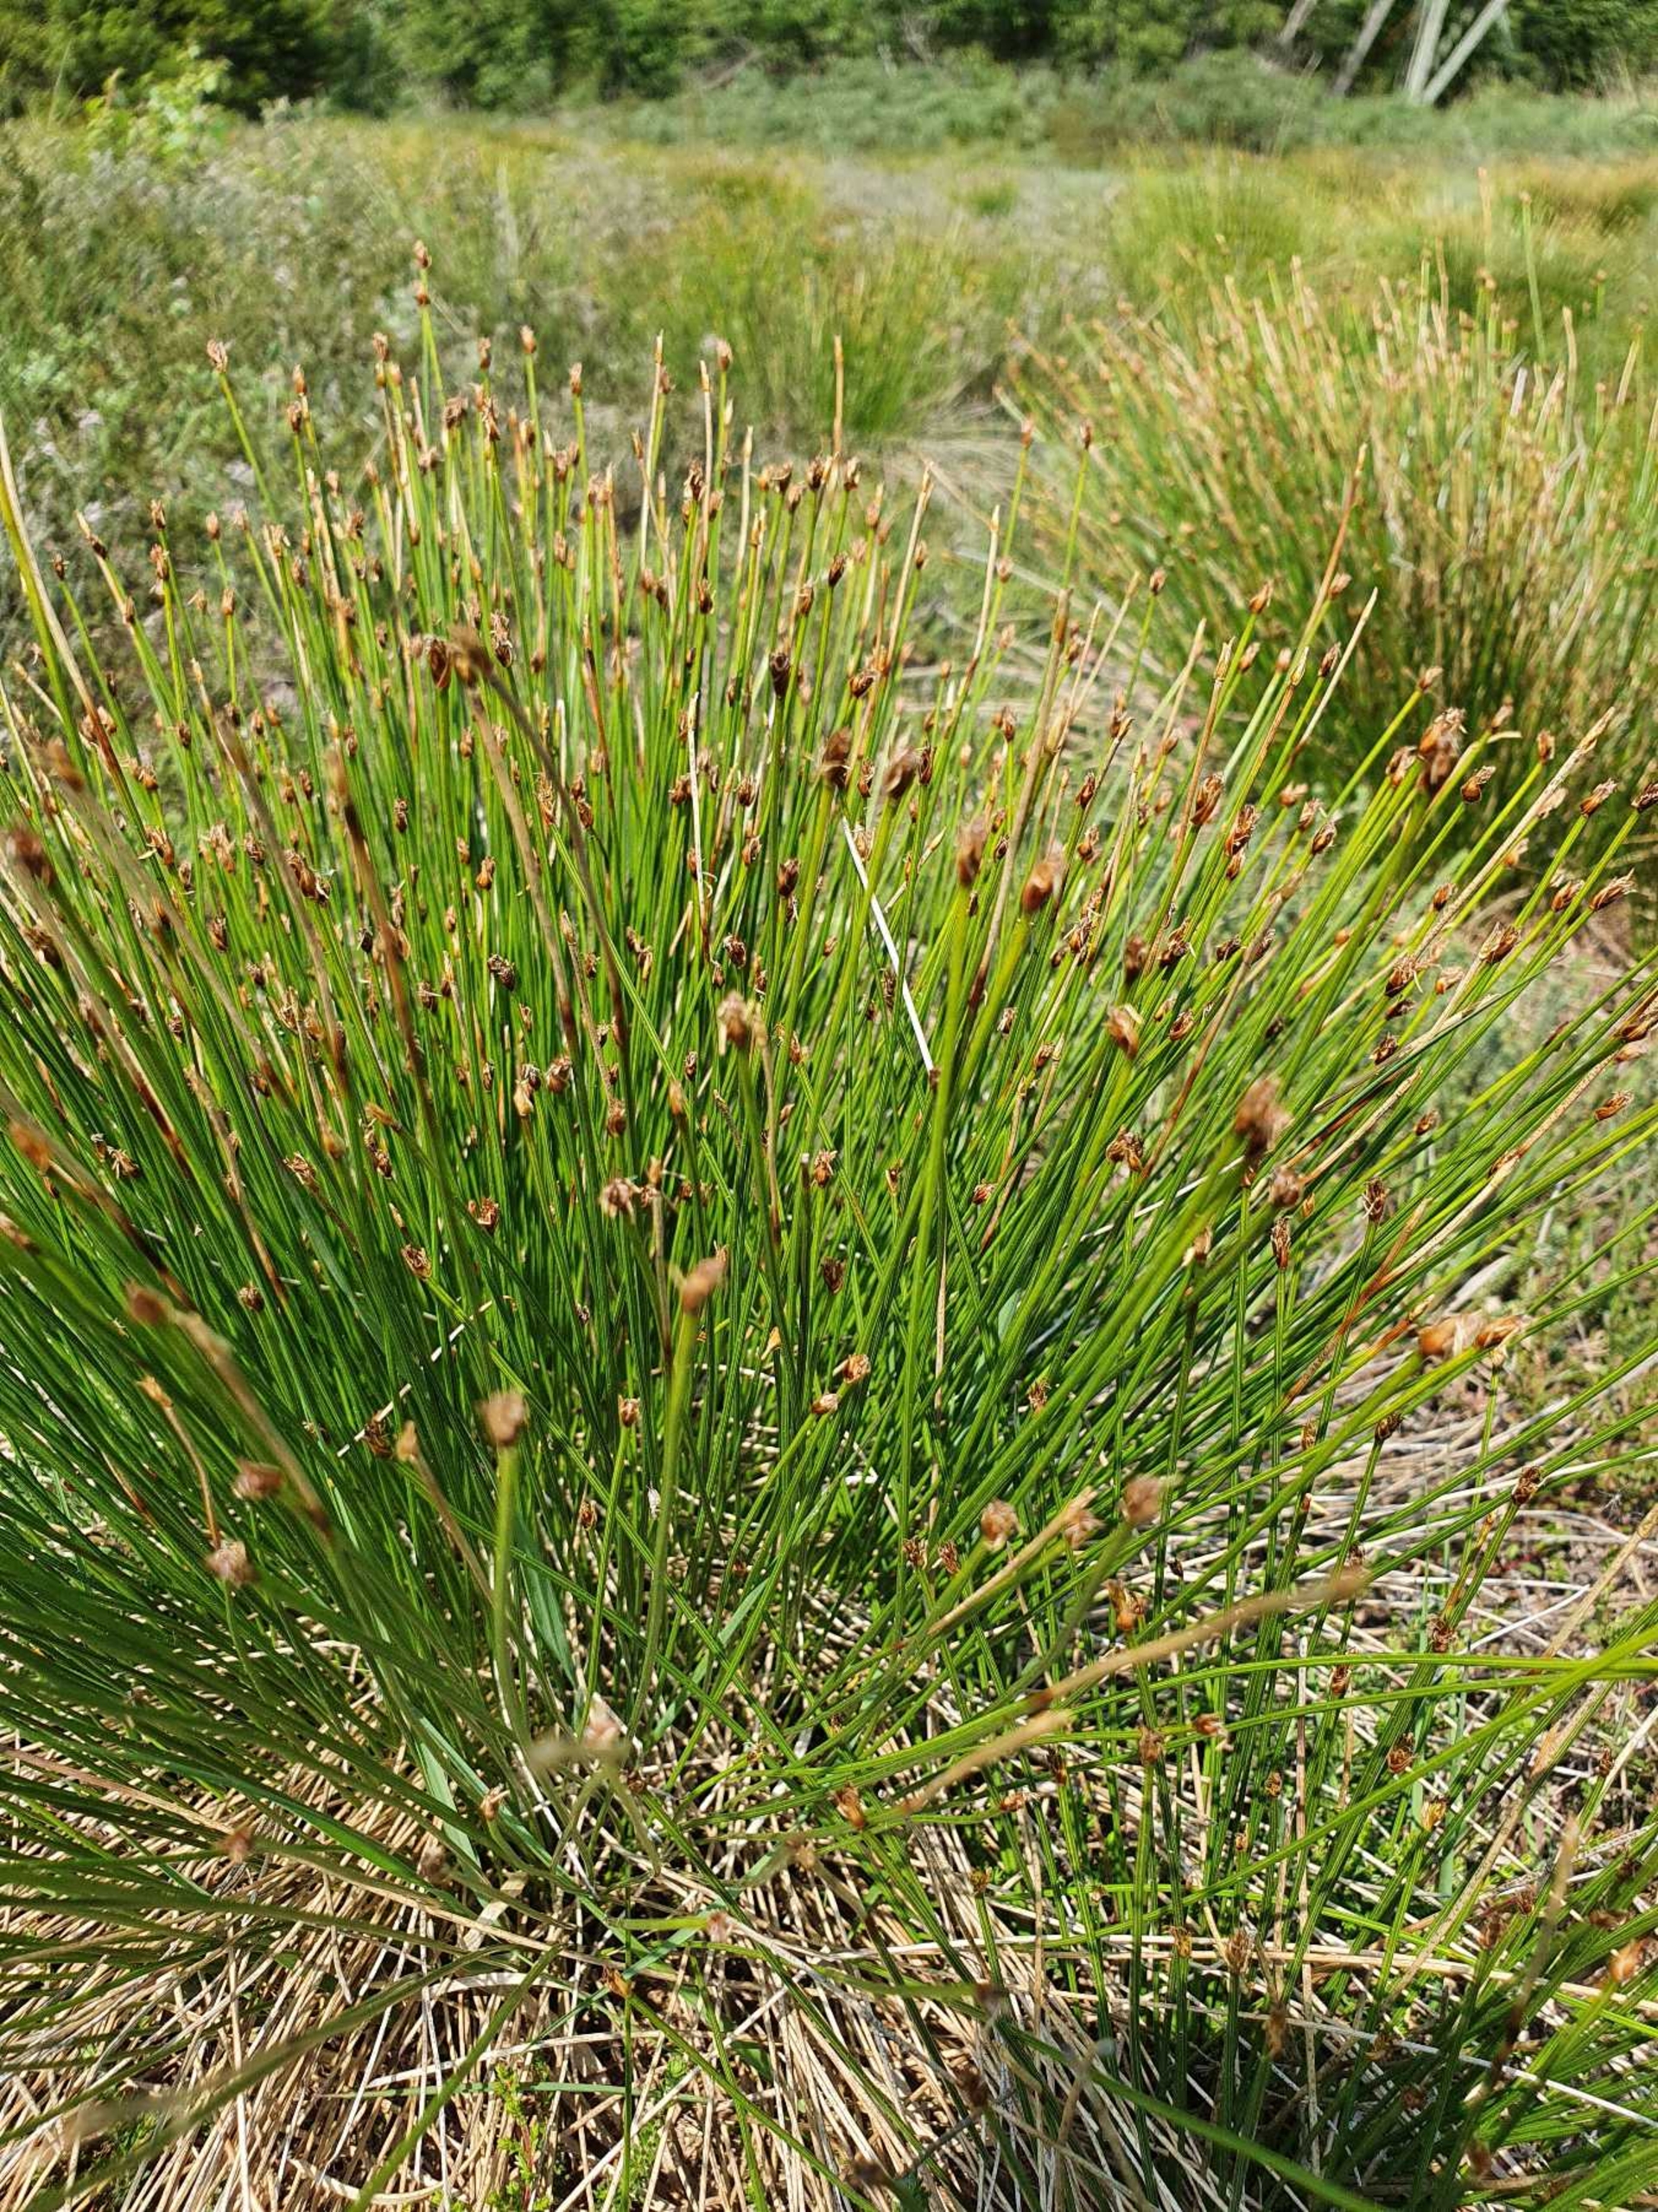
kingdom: Plantae
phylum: Tracheophyta
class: Liliopsida
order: Poales
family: Cyperaceae
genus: Trichophorum
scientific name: Trichophorum cespitosum
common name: Tuekogleaks
